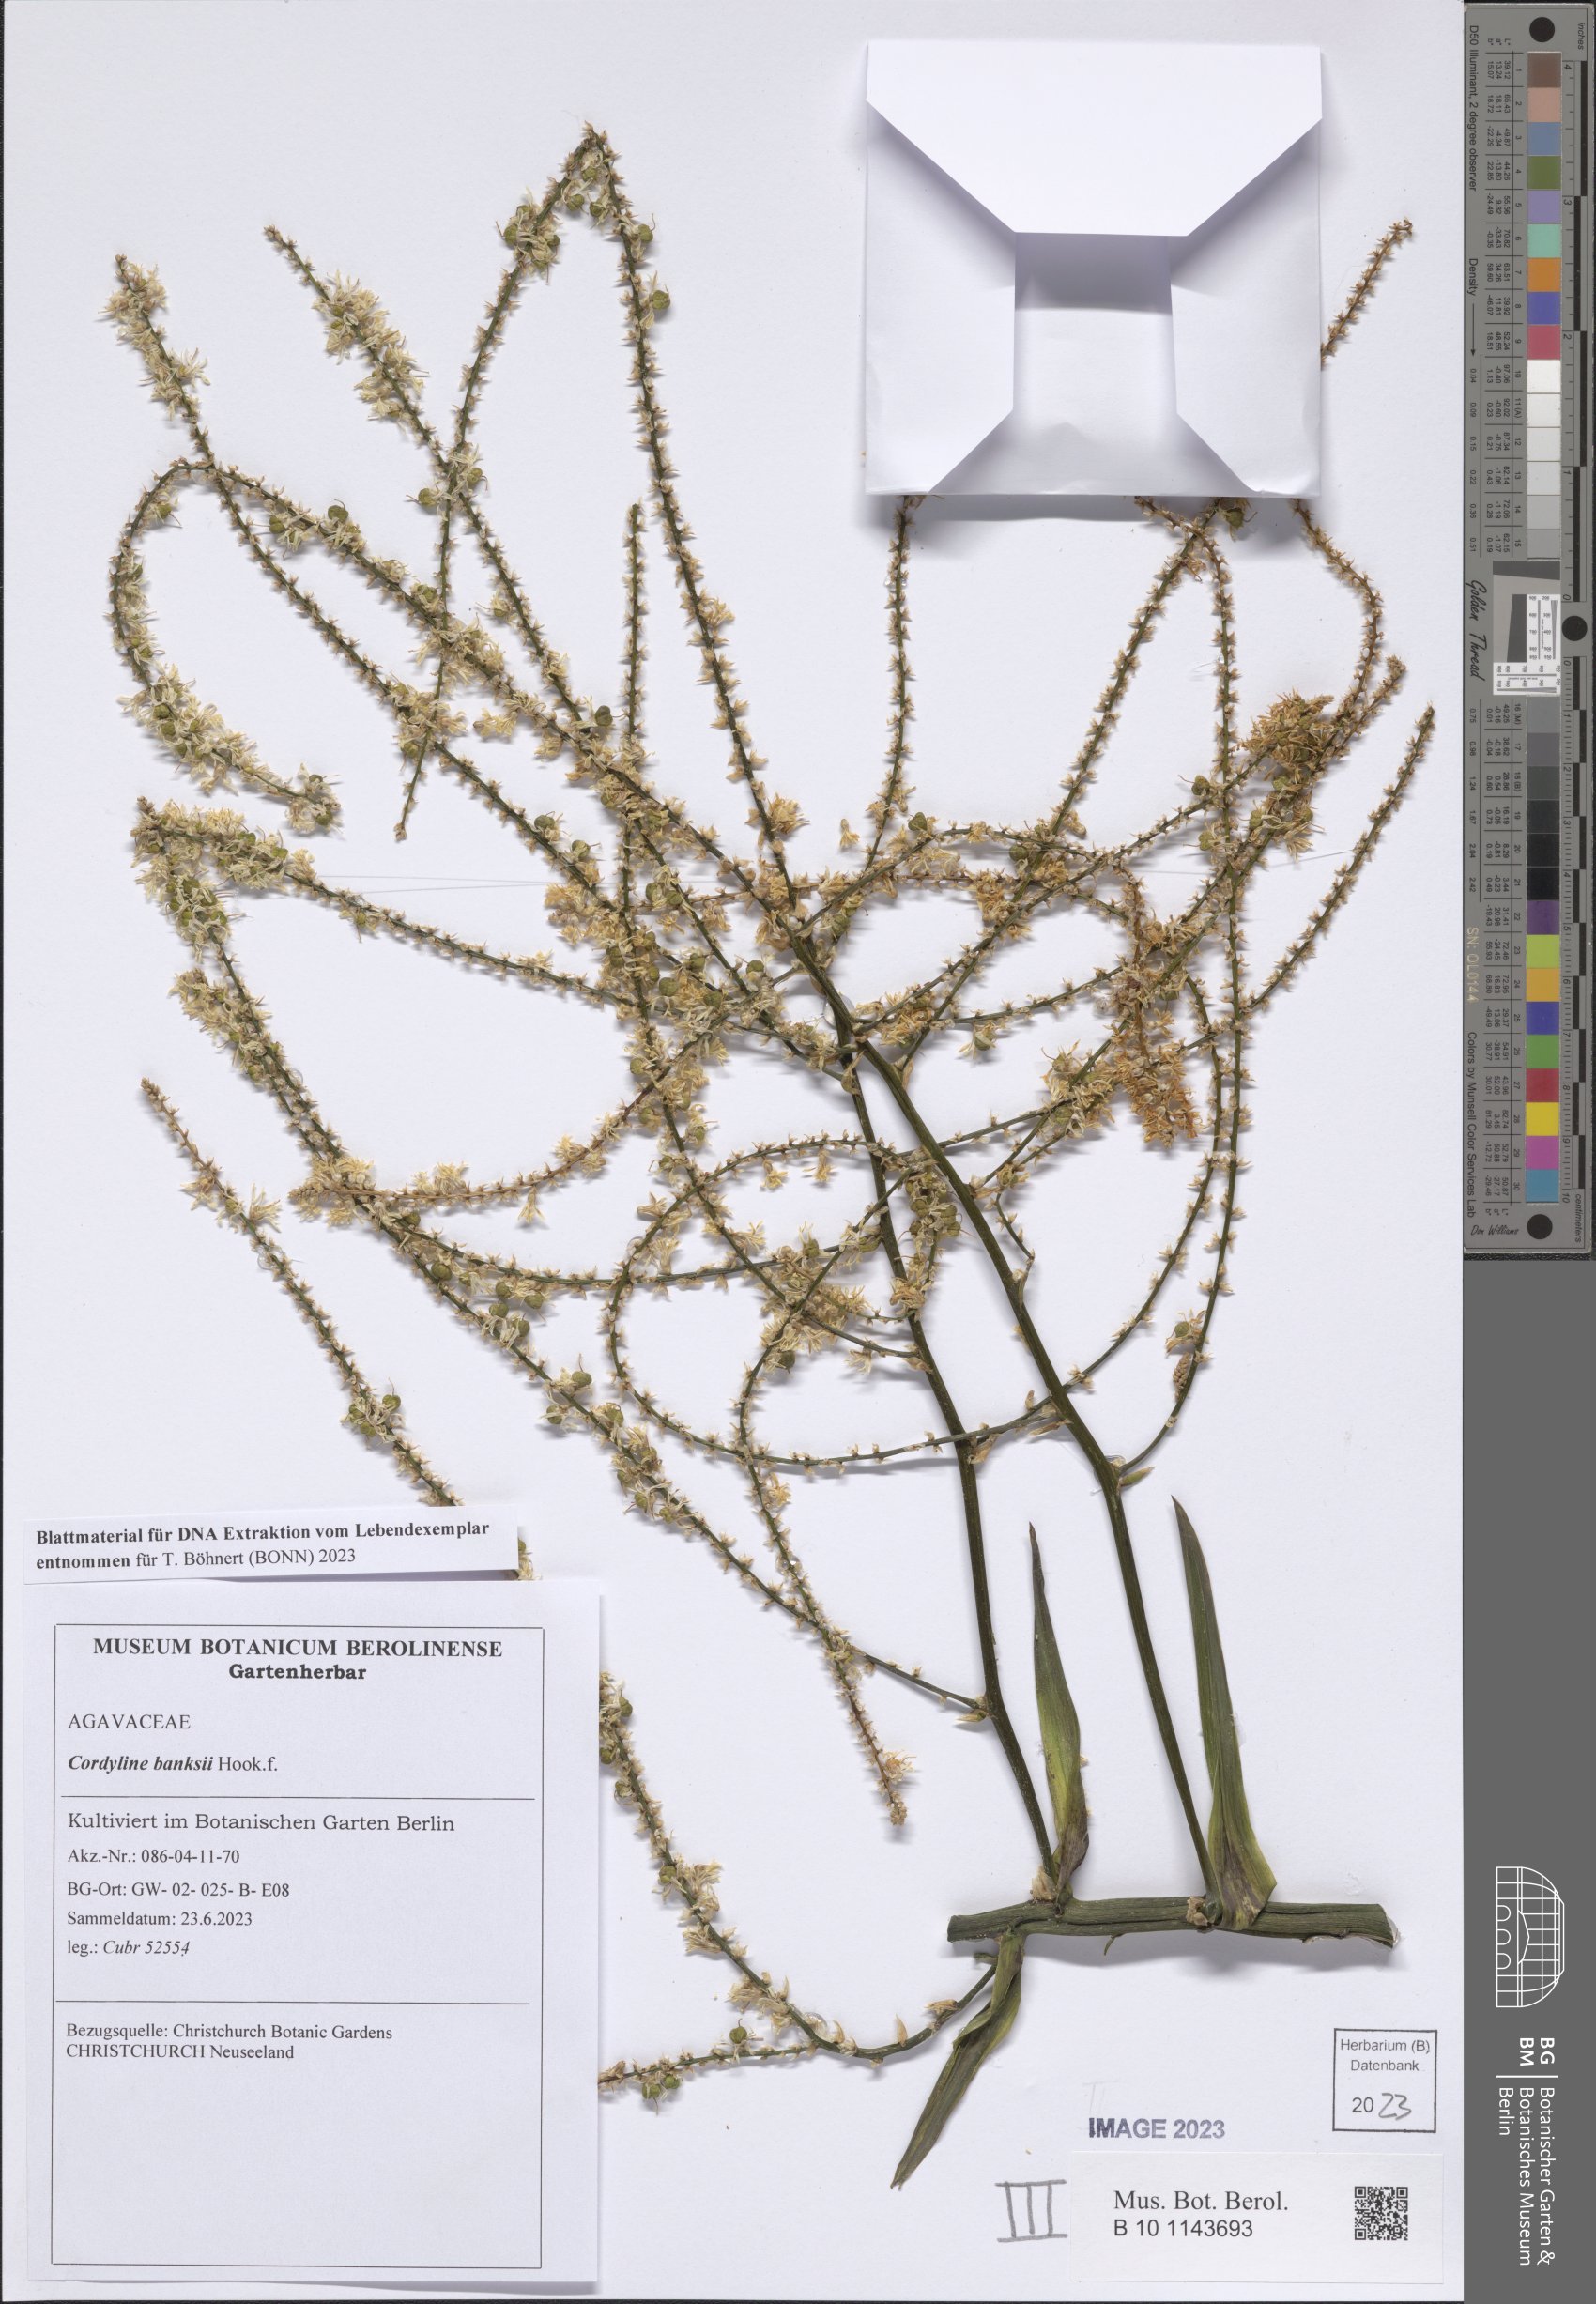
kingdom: Plantae
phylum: Tracheophyta
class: Liliopsida
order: Asparagales
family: Asparagaceae
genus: Cordyline
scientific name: Cordyline banksii
